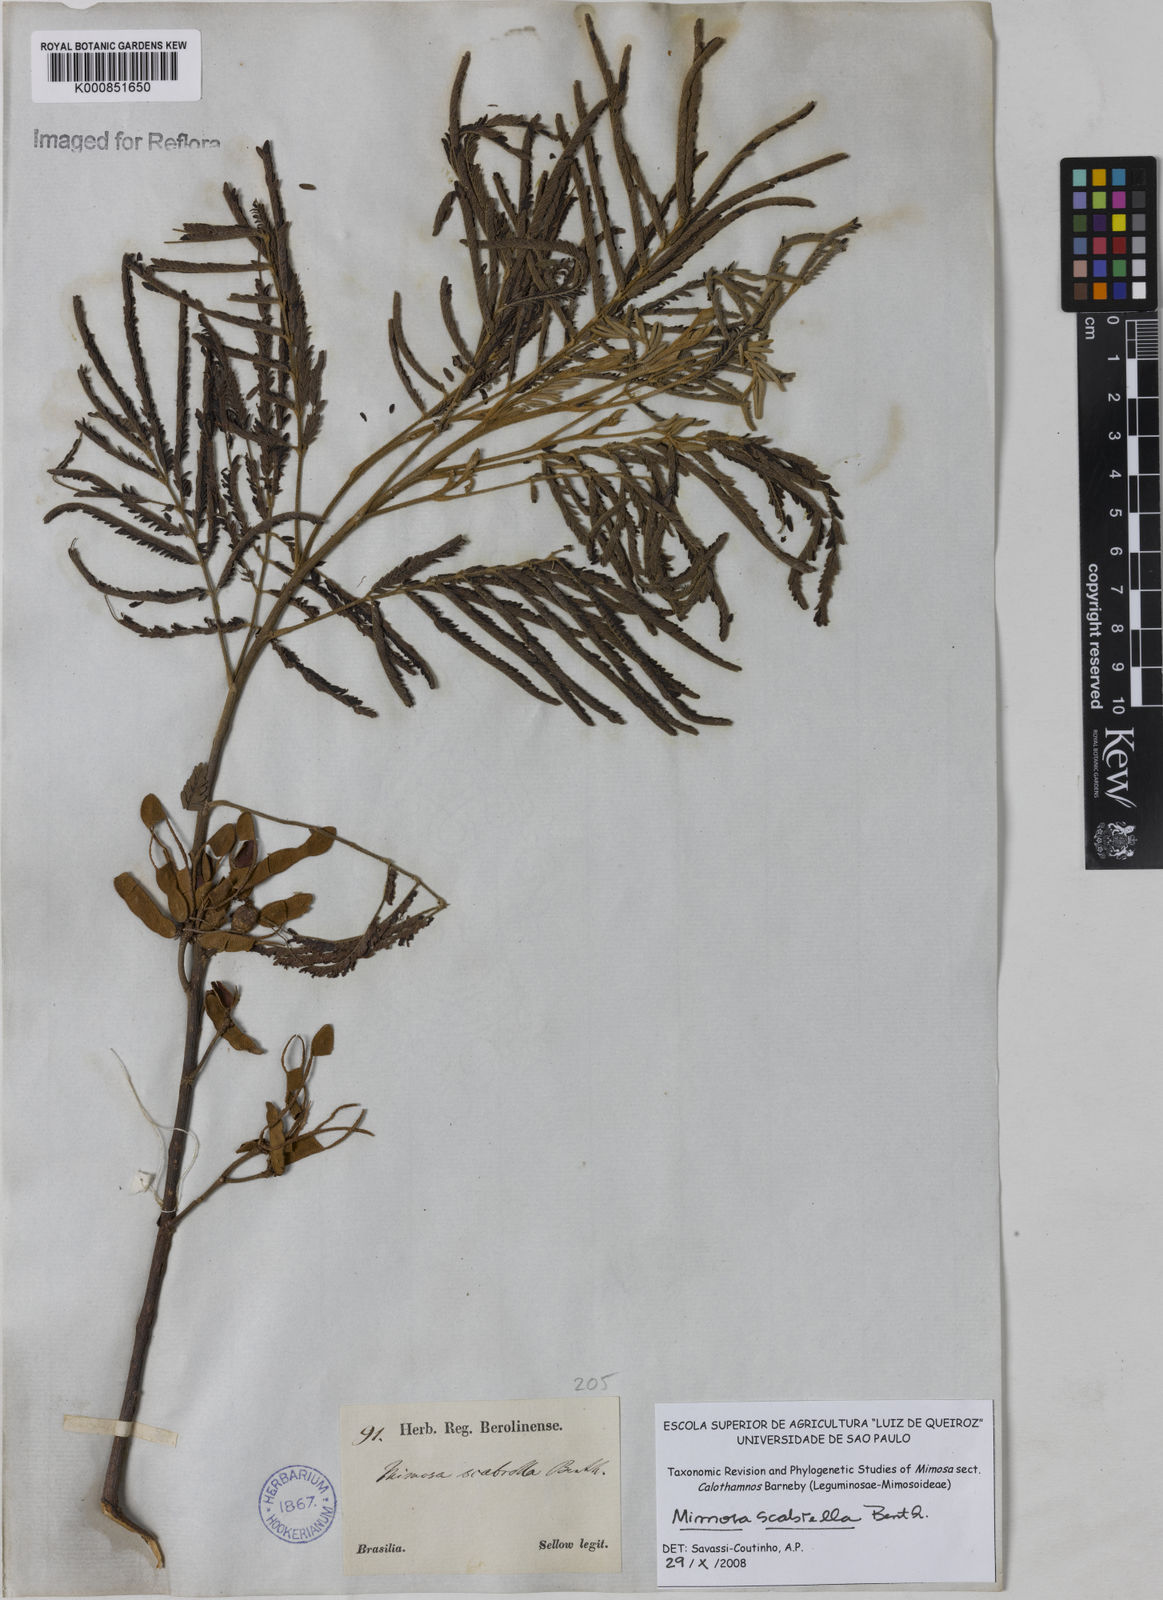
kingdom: Plantae
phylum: Tracheophyta
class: Magnoliopsida
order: Fabales
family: Fabaceae
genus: Mimosa
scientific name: Mimosa scabrella
